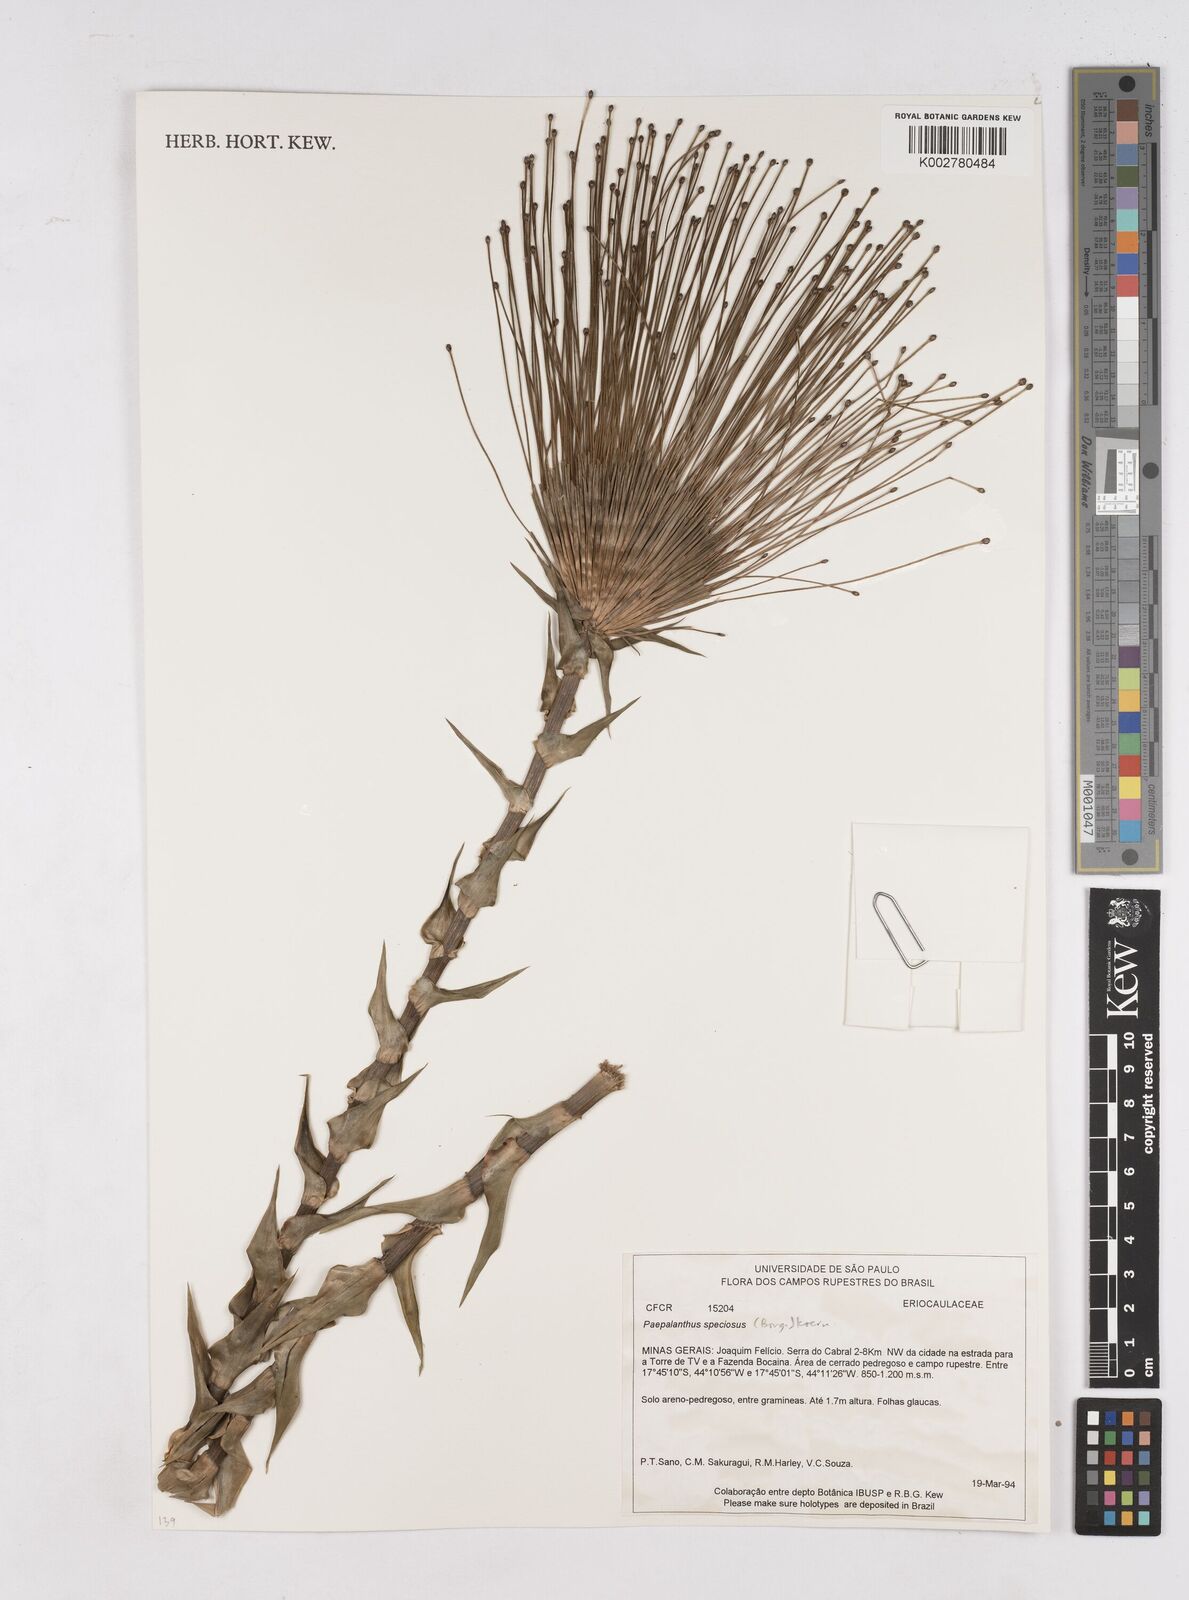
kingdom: Plantae
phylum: Tracheophyta
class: Liliopsida
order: Poales
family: Eriocaulaceae
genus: Paepalanthus
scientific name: Paepalanthus chiquitensis
